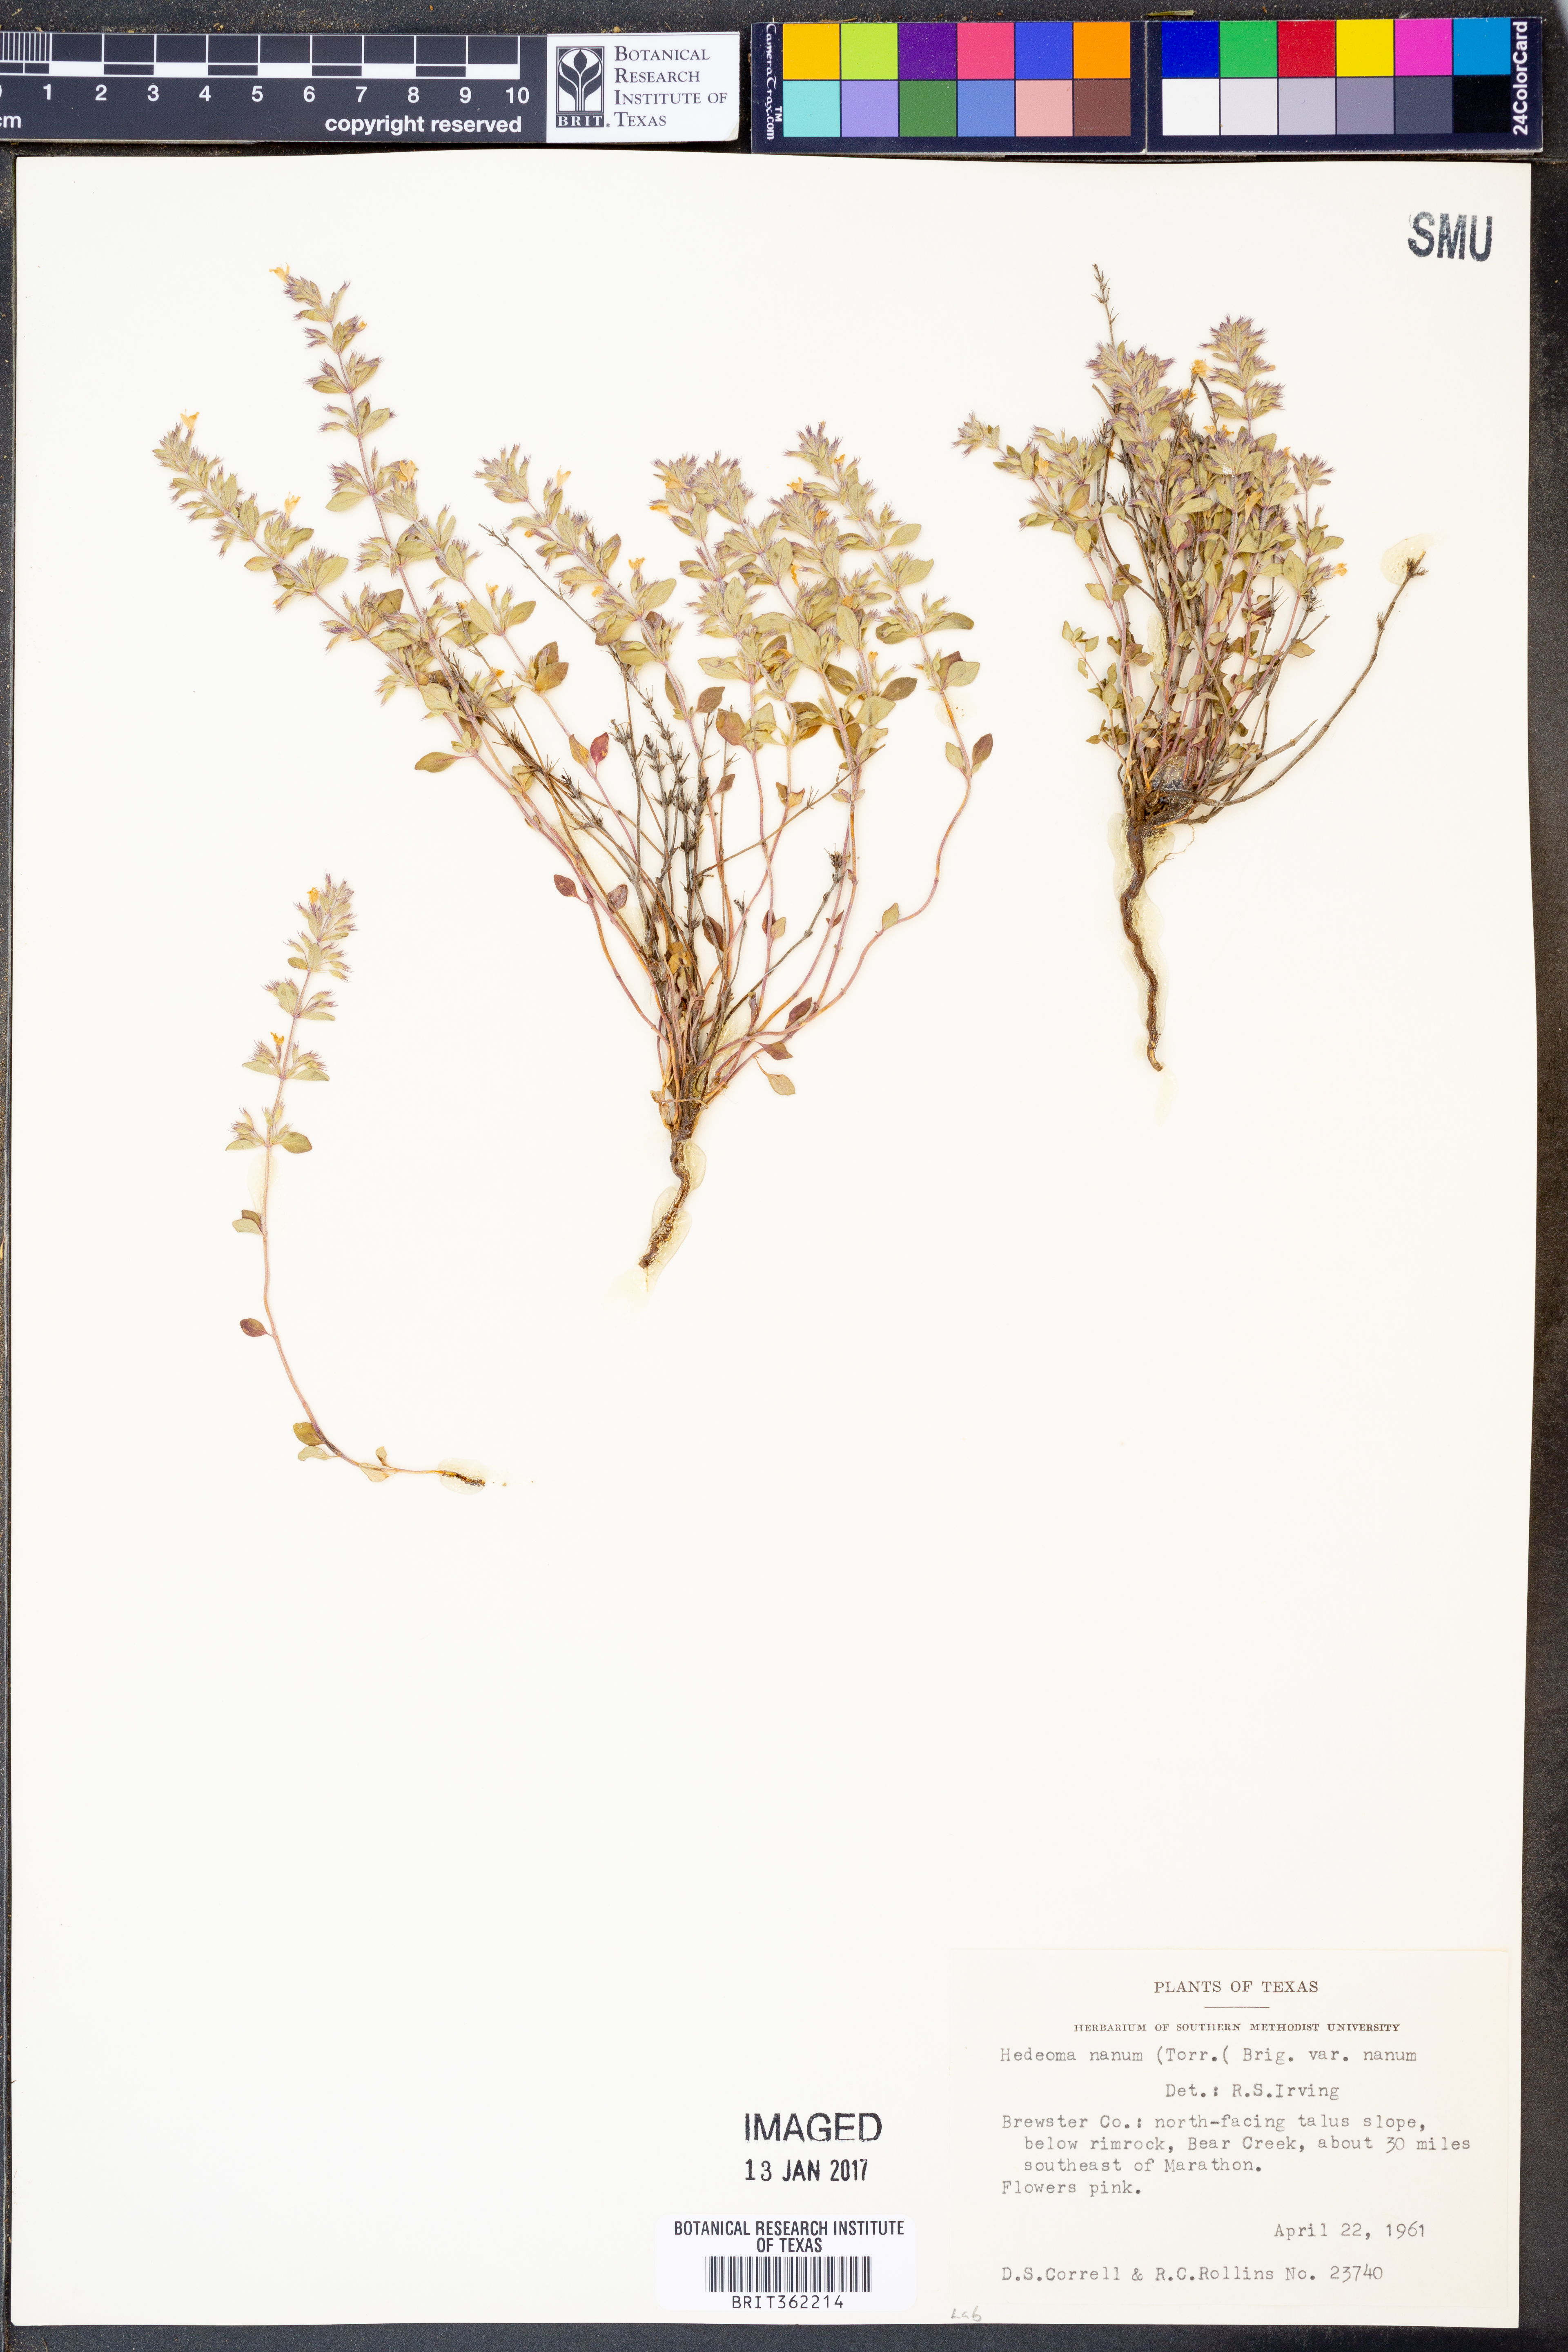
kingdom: Plantae
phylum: Tracheophyta
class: Magnoliopsida
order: Lamiales
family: Lamiaceae
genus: Hedeoma
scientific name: Hedeoma nana
